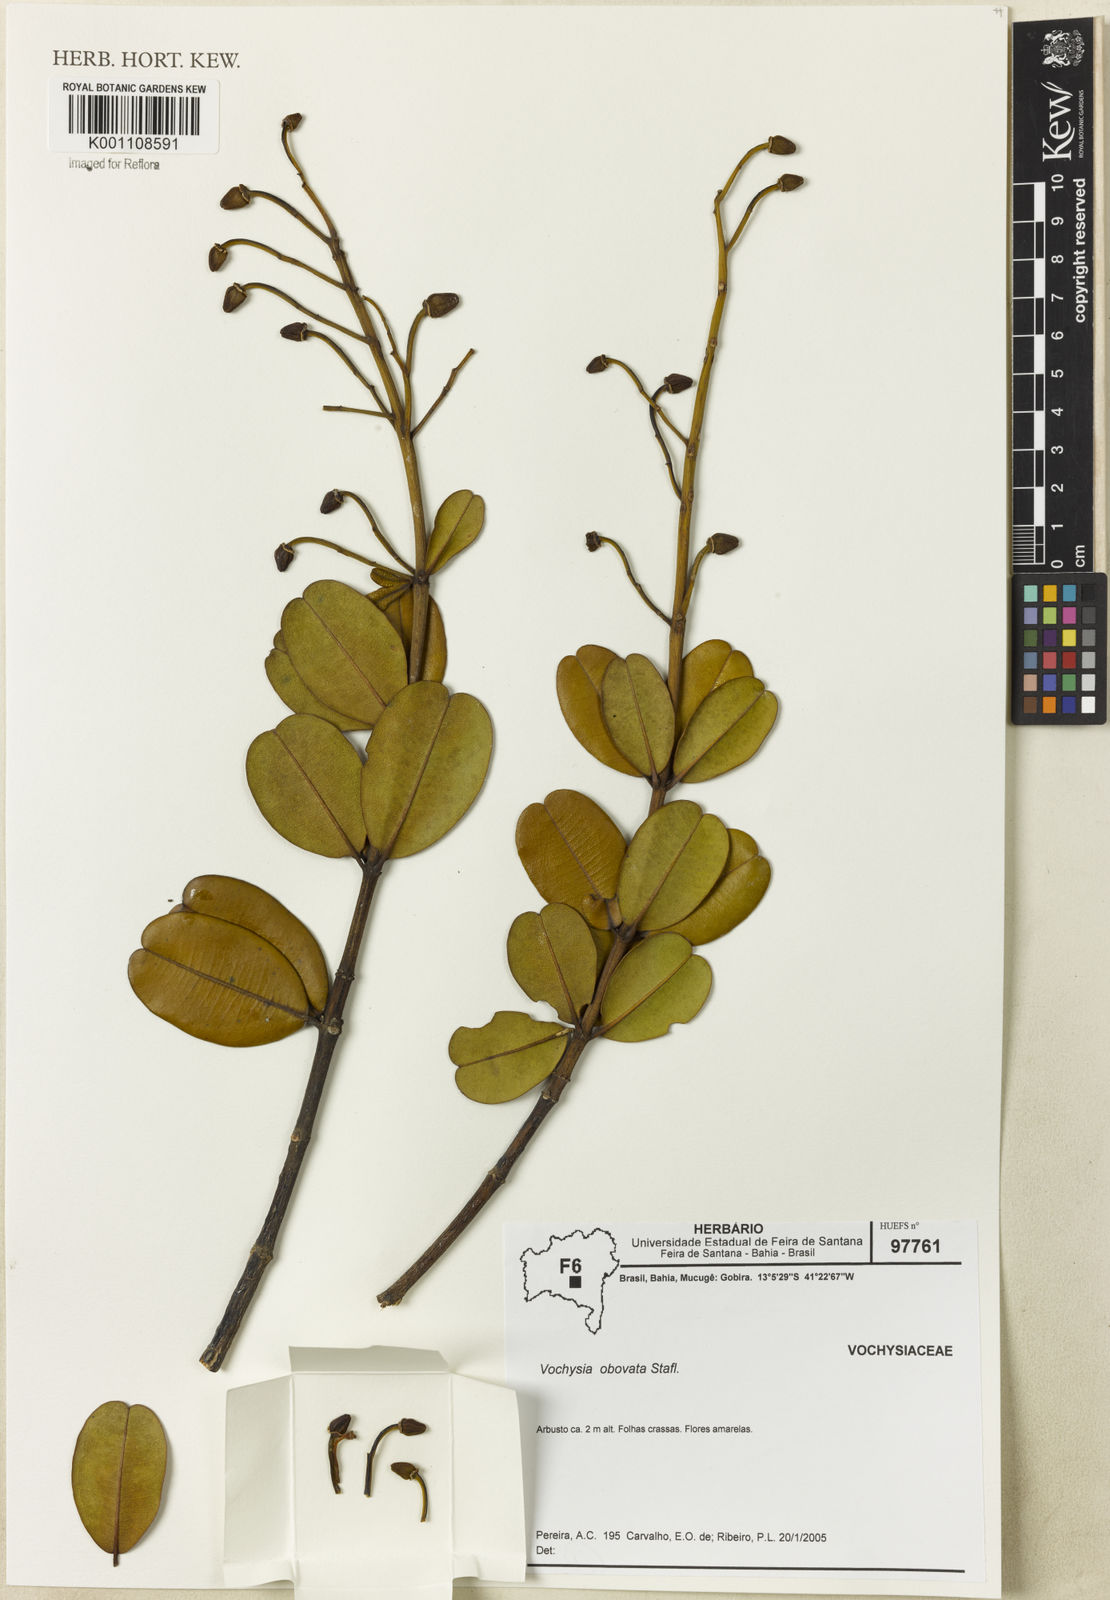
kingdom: Plantae
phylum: Tracheophyta
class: Magnoliopsida
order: Myrtales
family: Vochysiaceae
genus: Vochysia
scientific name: Vochysia obovata
